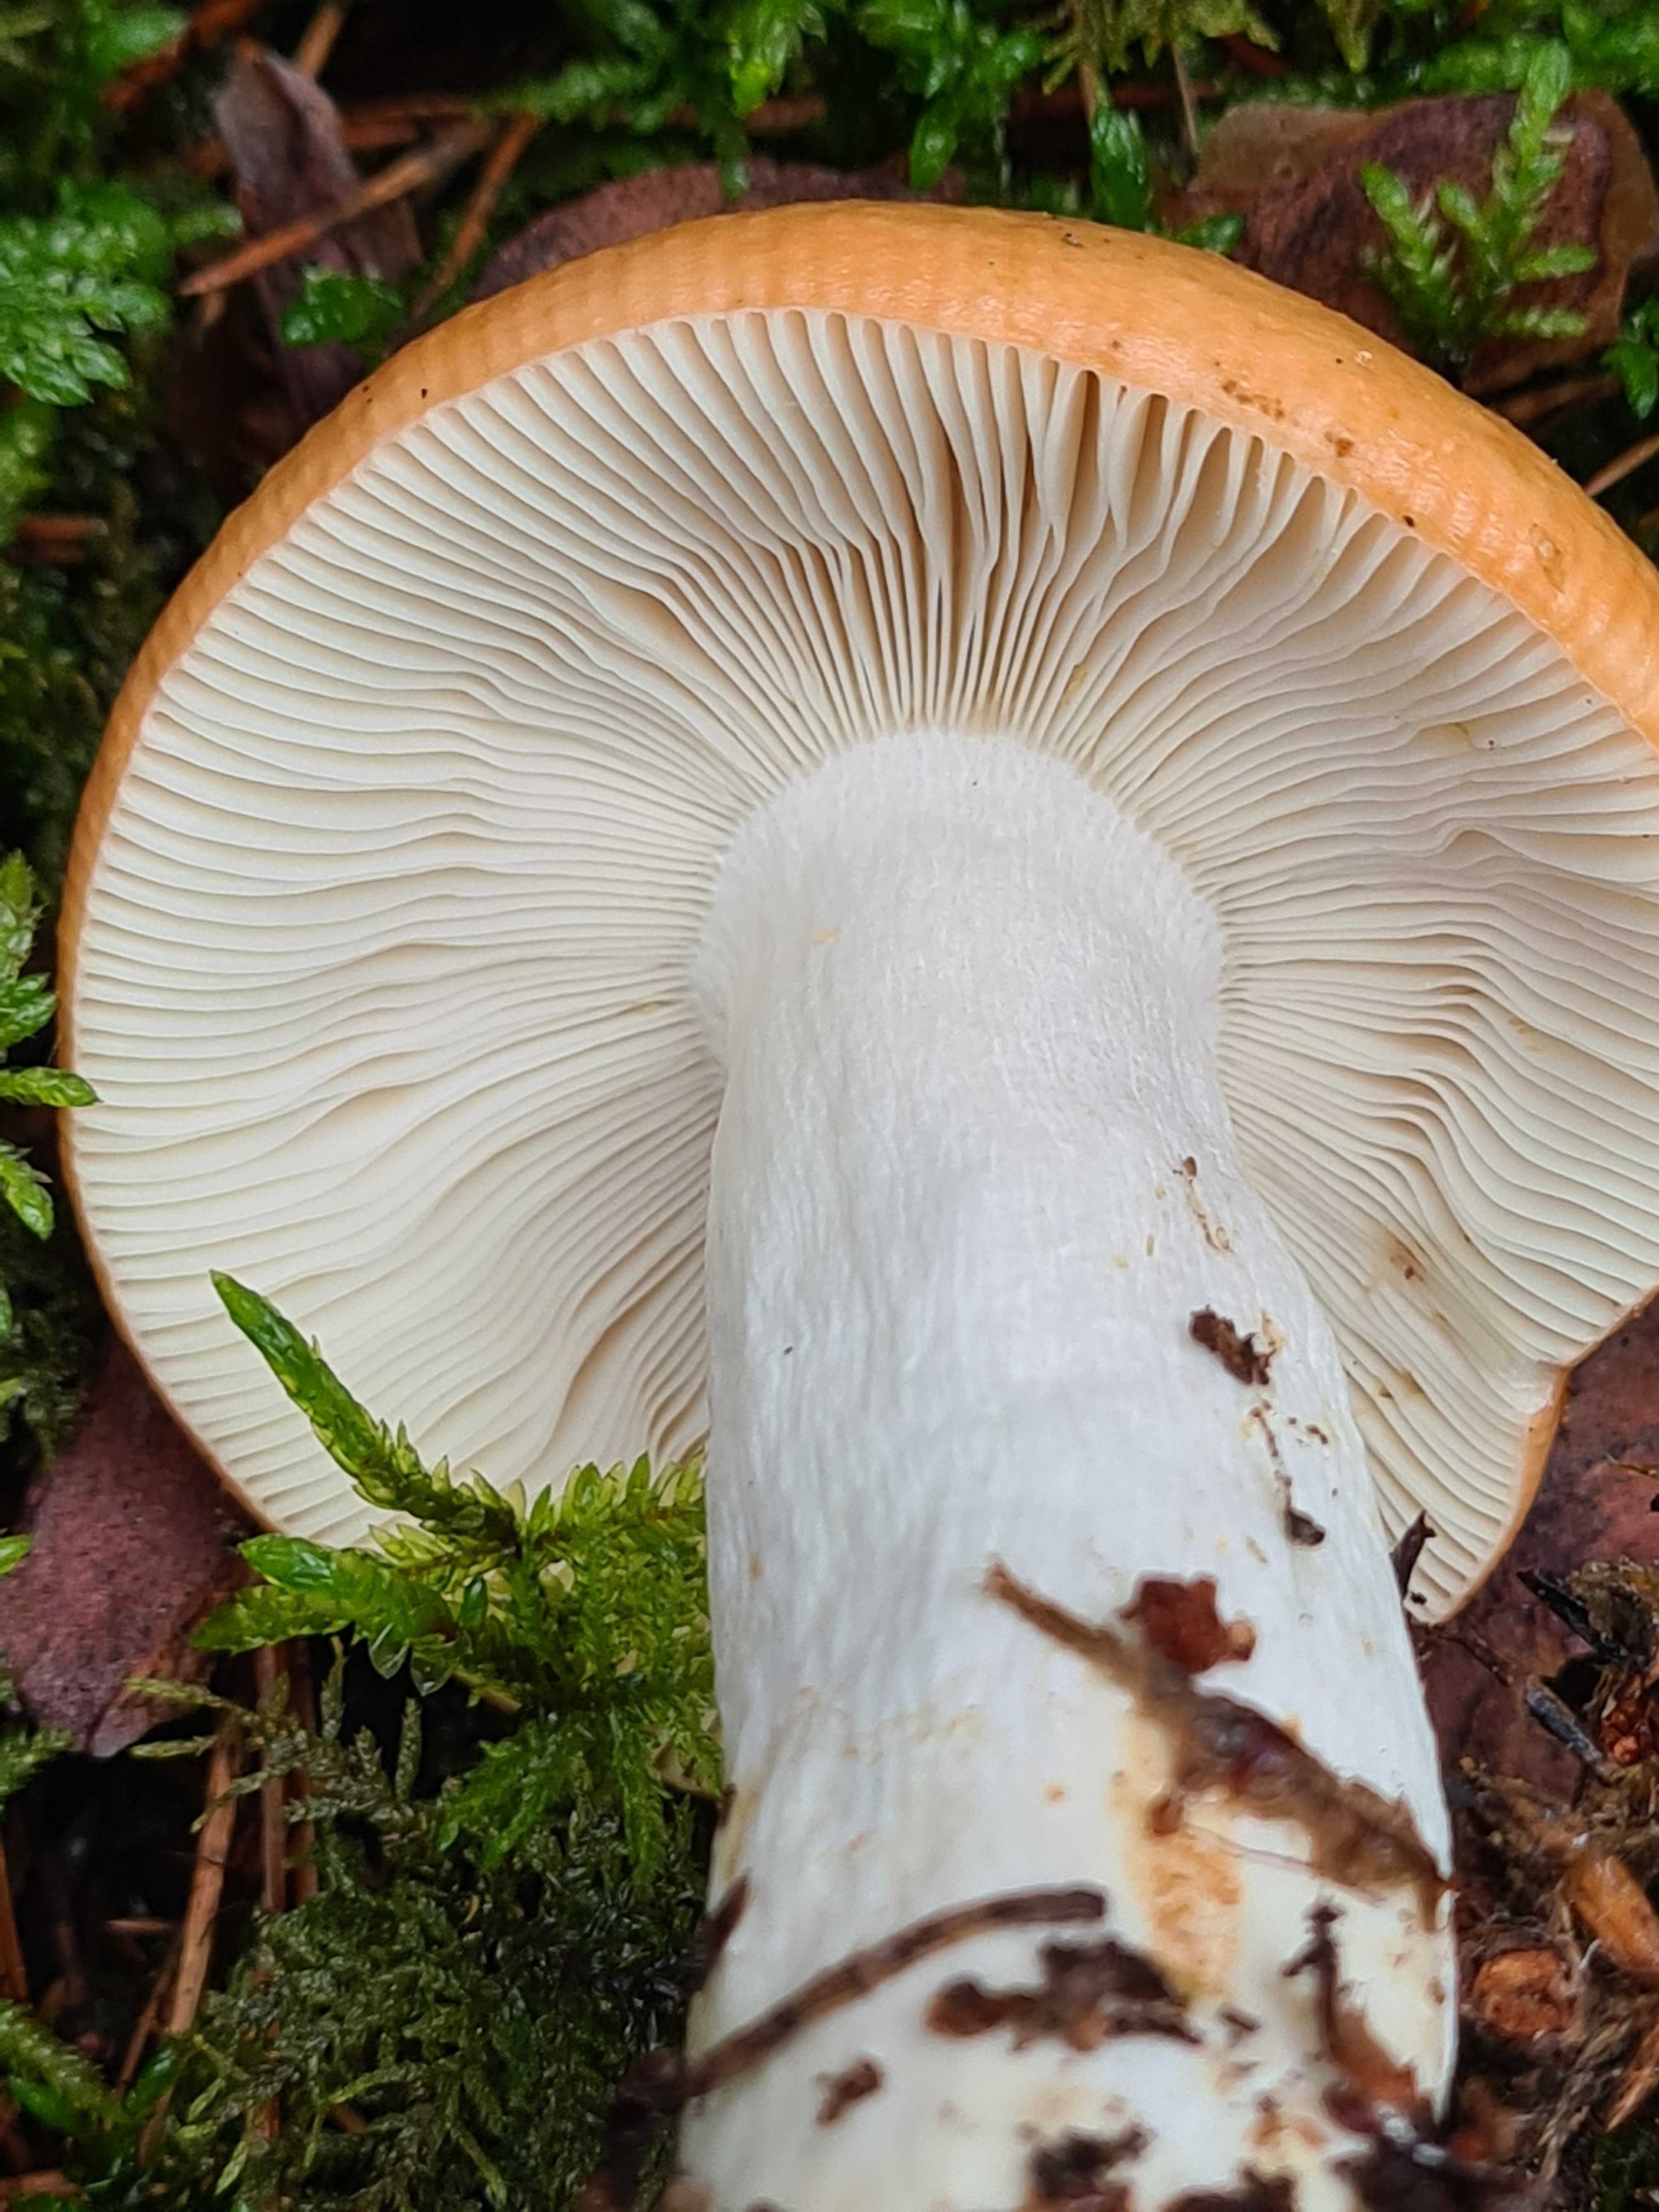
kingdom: Fungi
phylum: Basidiomycota
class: Agaricomycetes
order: Russulales
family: Russulaceae
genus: Russula
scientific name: Russula decolorans
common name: afblegende skørhat
